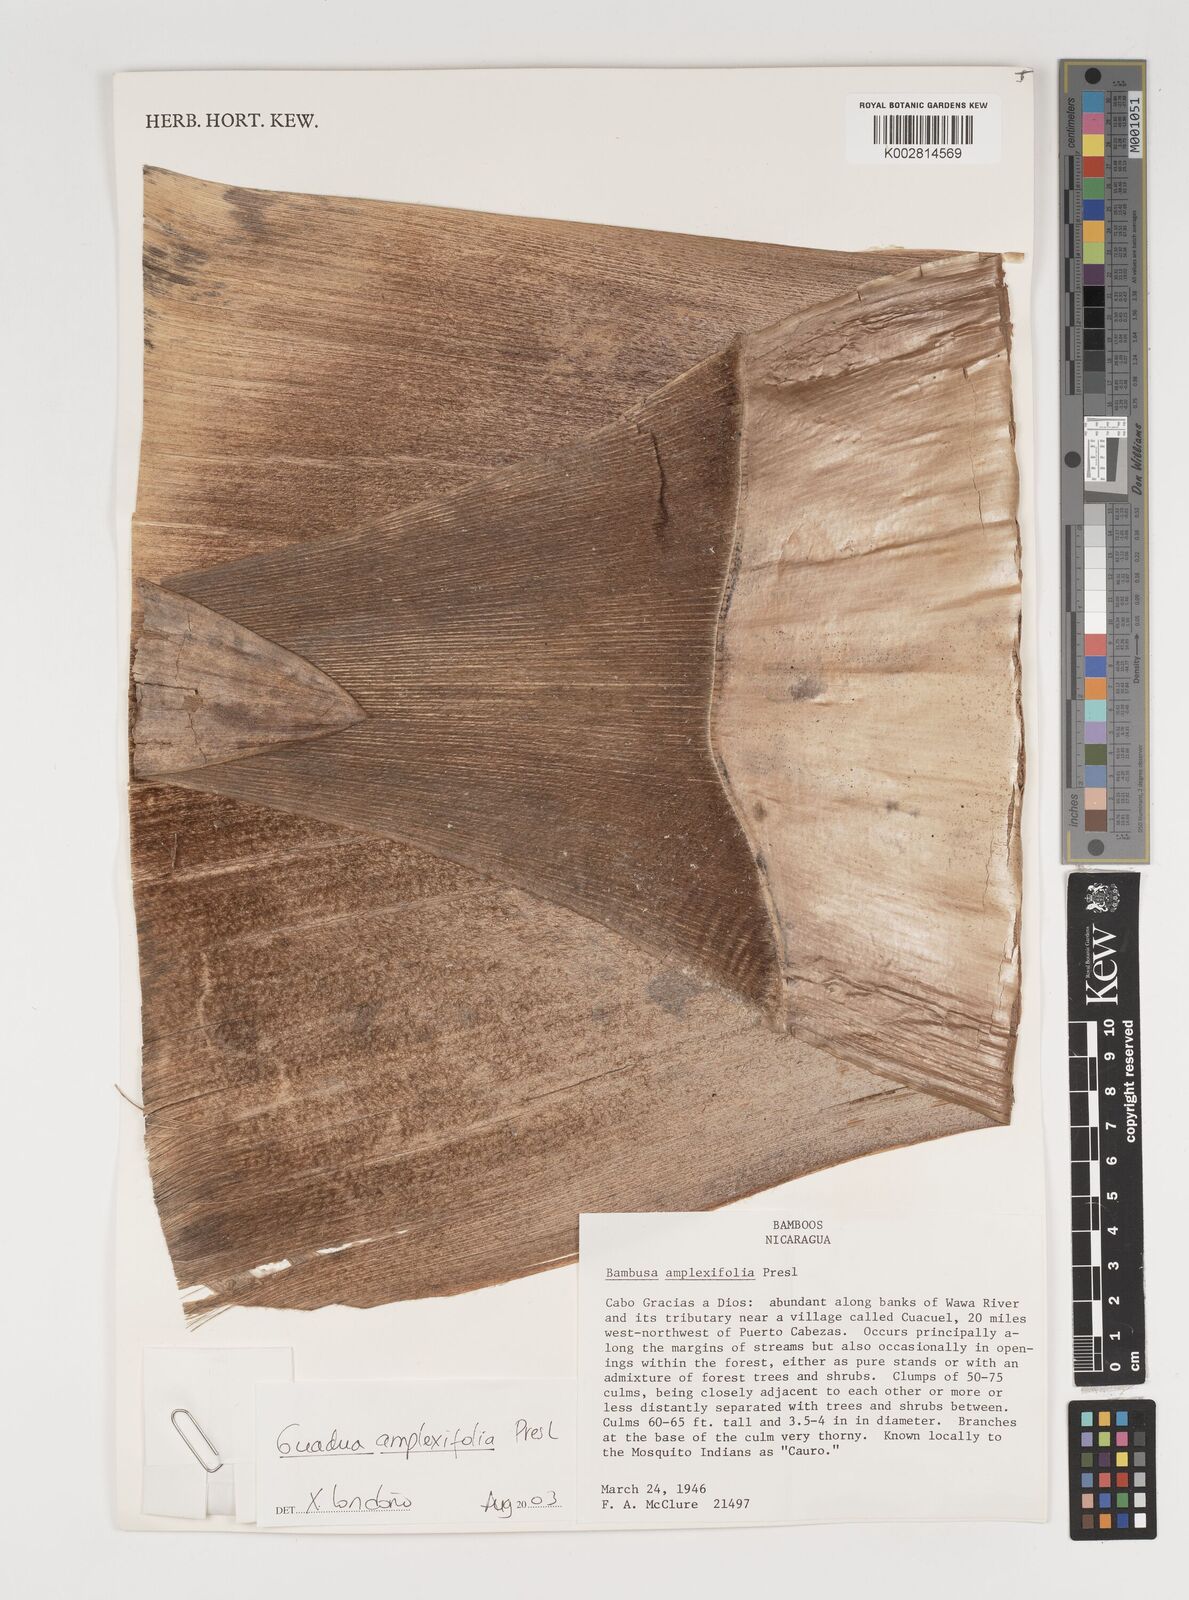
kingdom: Plantae
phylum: Tracheophyta
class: Liliopsida
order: Poales
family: Poaceae
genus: Guadua
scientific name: Guadua amplexifolia
